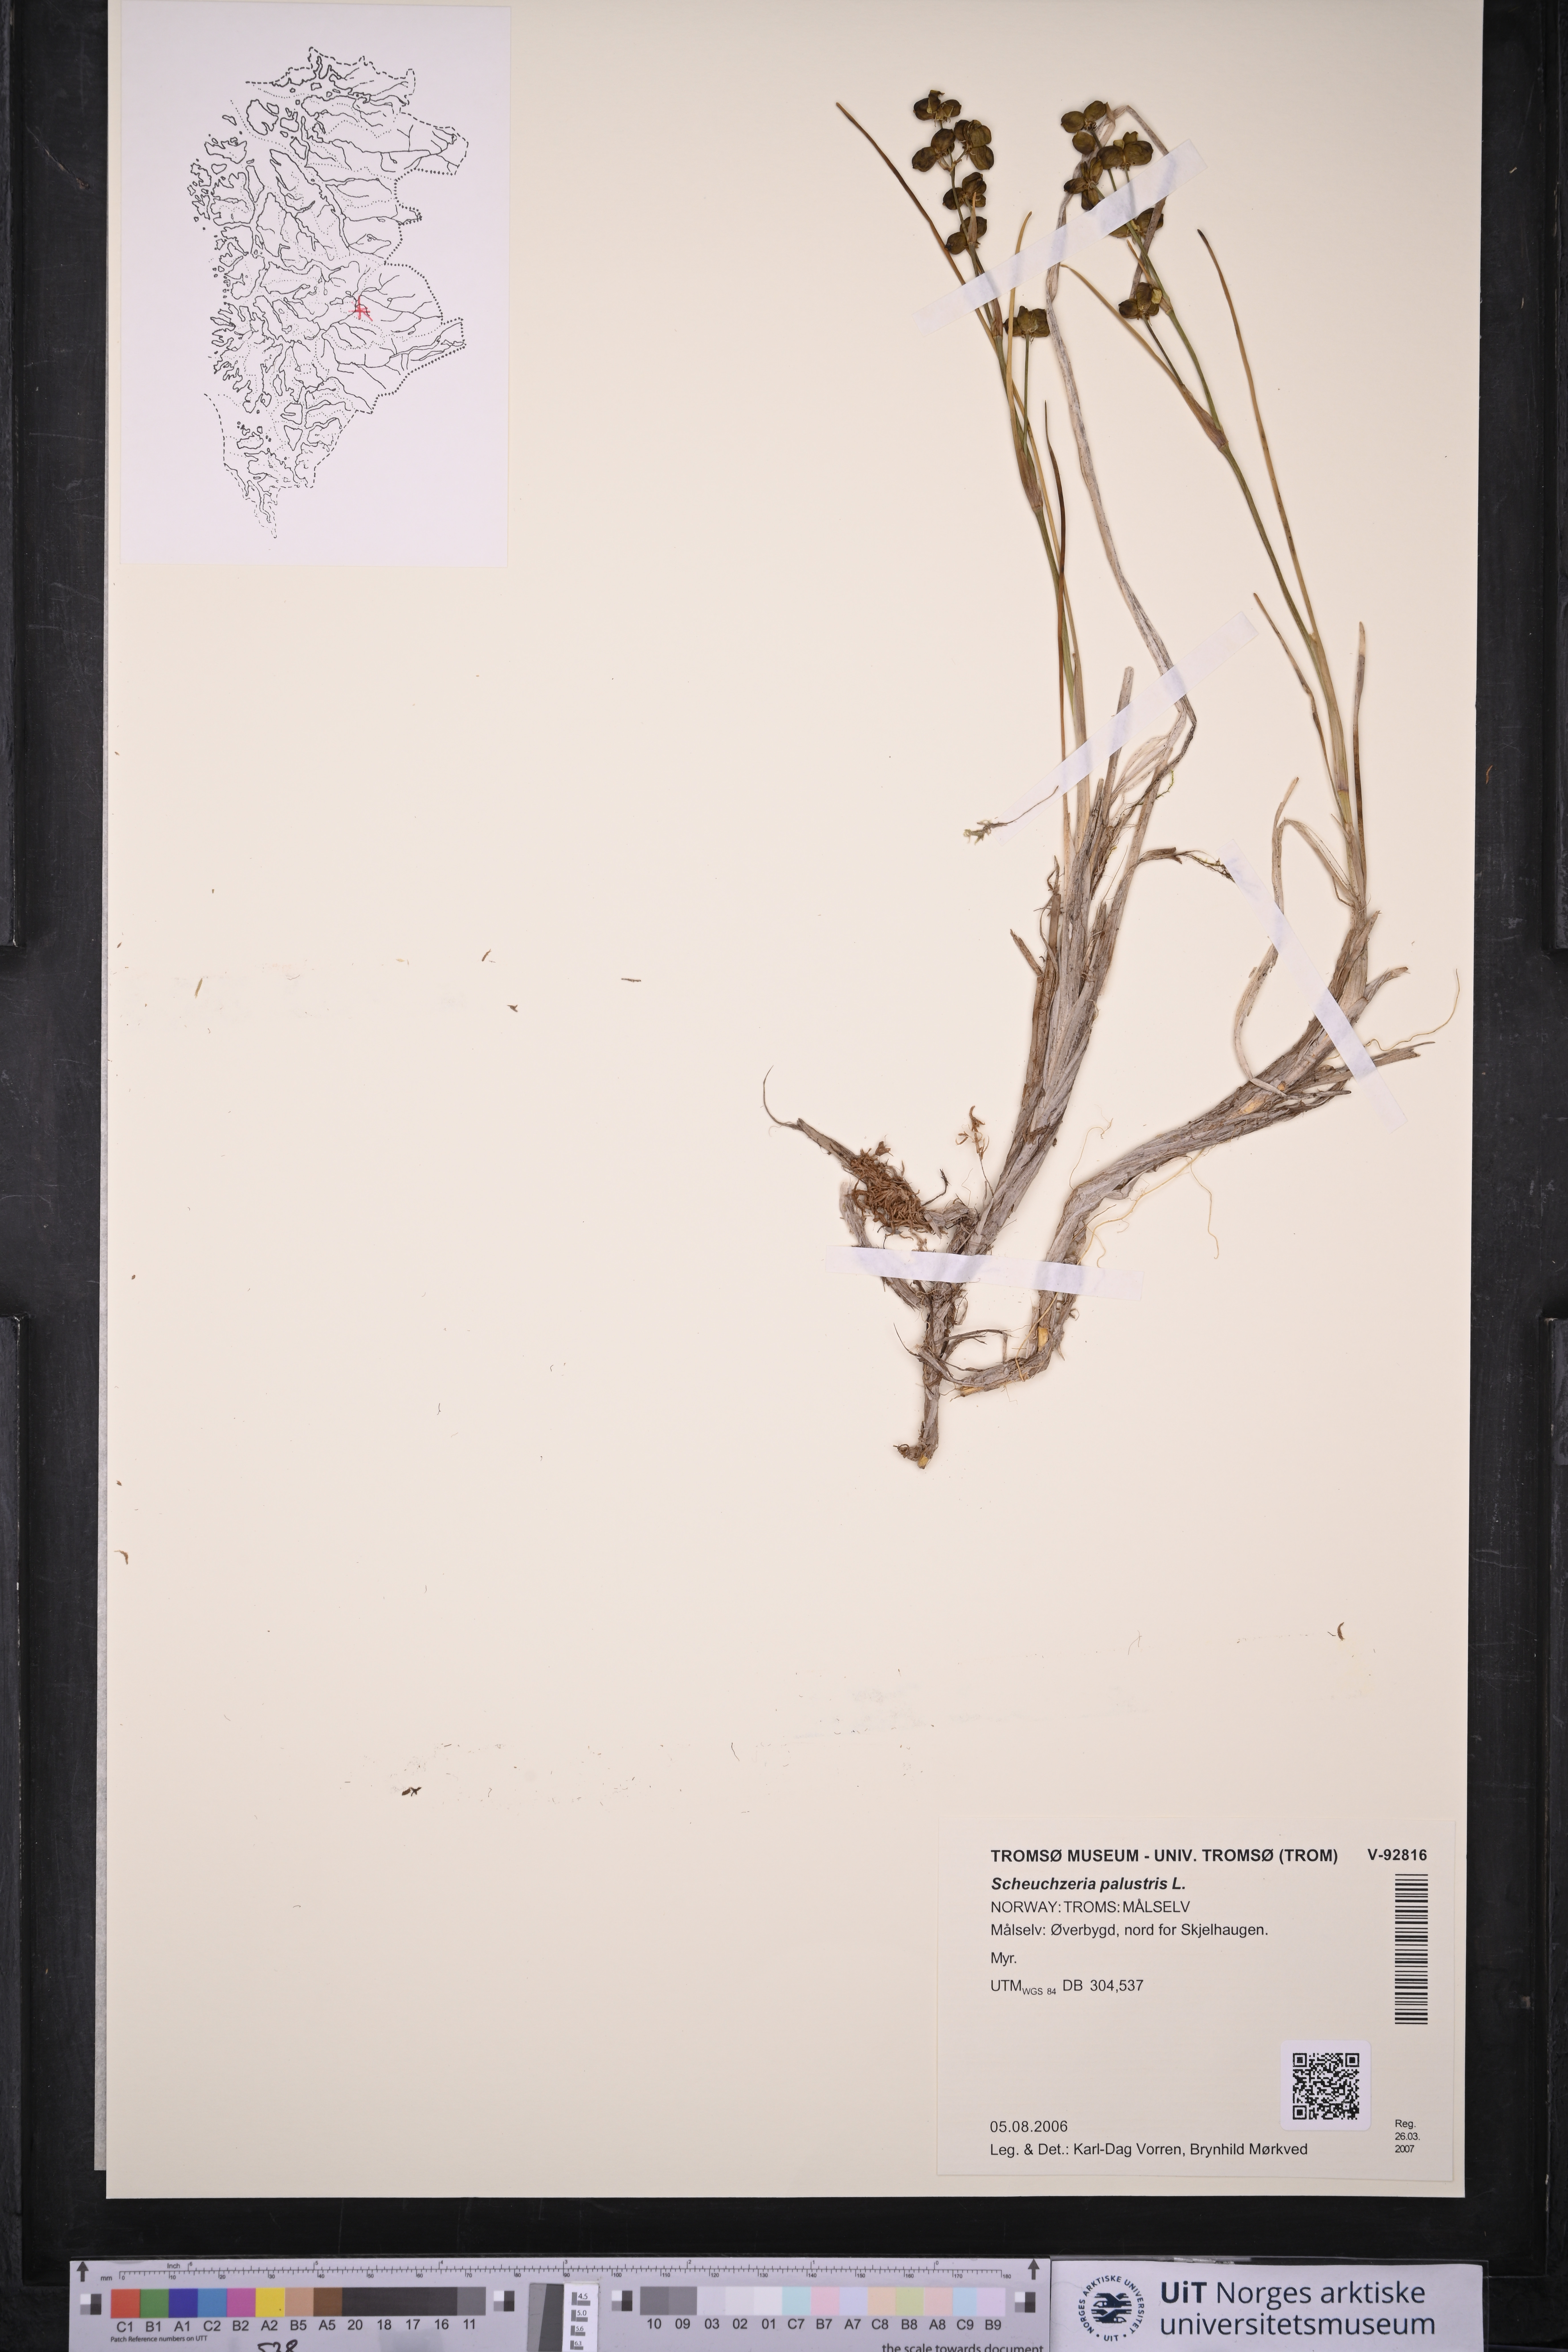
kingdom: Plantae
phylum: Tracheophyta
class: Liliopsida
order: Alismatales
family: Scheuchzeriaceae
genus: Scheuchzeria
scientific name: Scheuchzeria palustris
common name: Rannoch-rush
